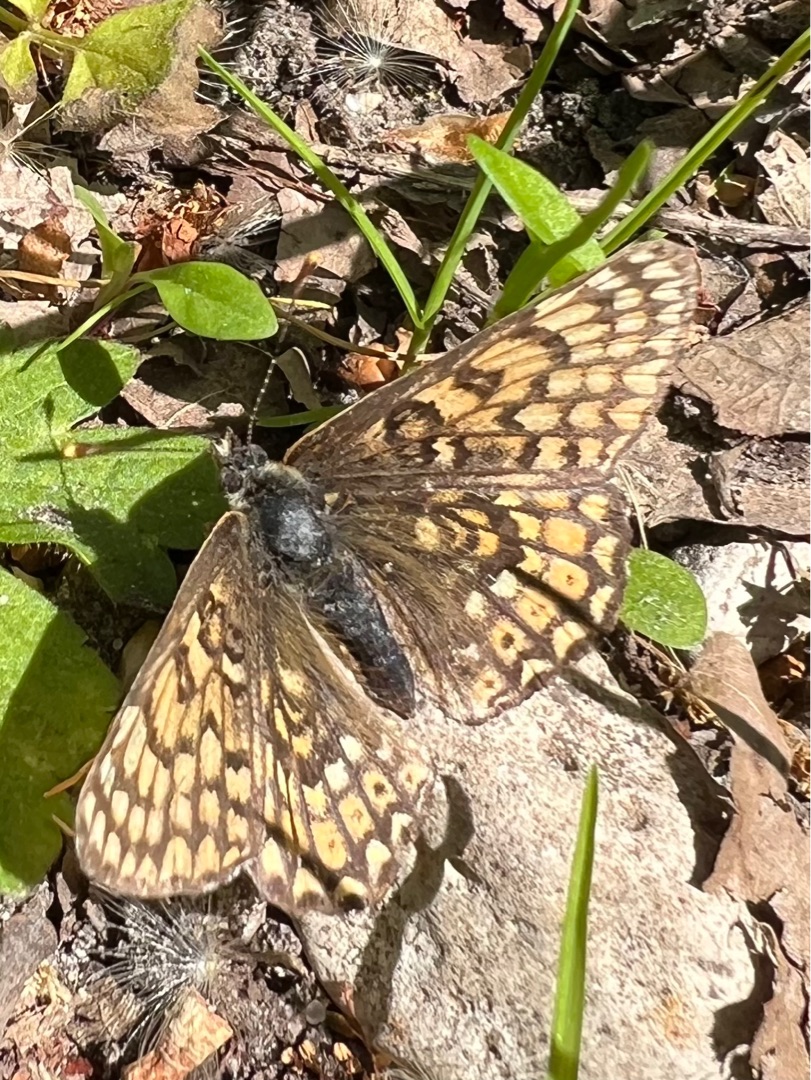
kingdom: Animalia
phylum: Arthropoda
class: Insecta
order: Lepidoptera
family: Nymphalidae
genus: Melitaea
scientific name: Melitaea cinxia
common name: Okkergul pletvinge
